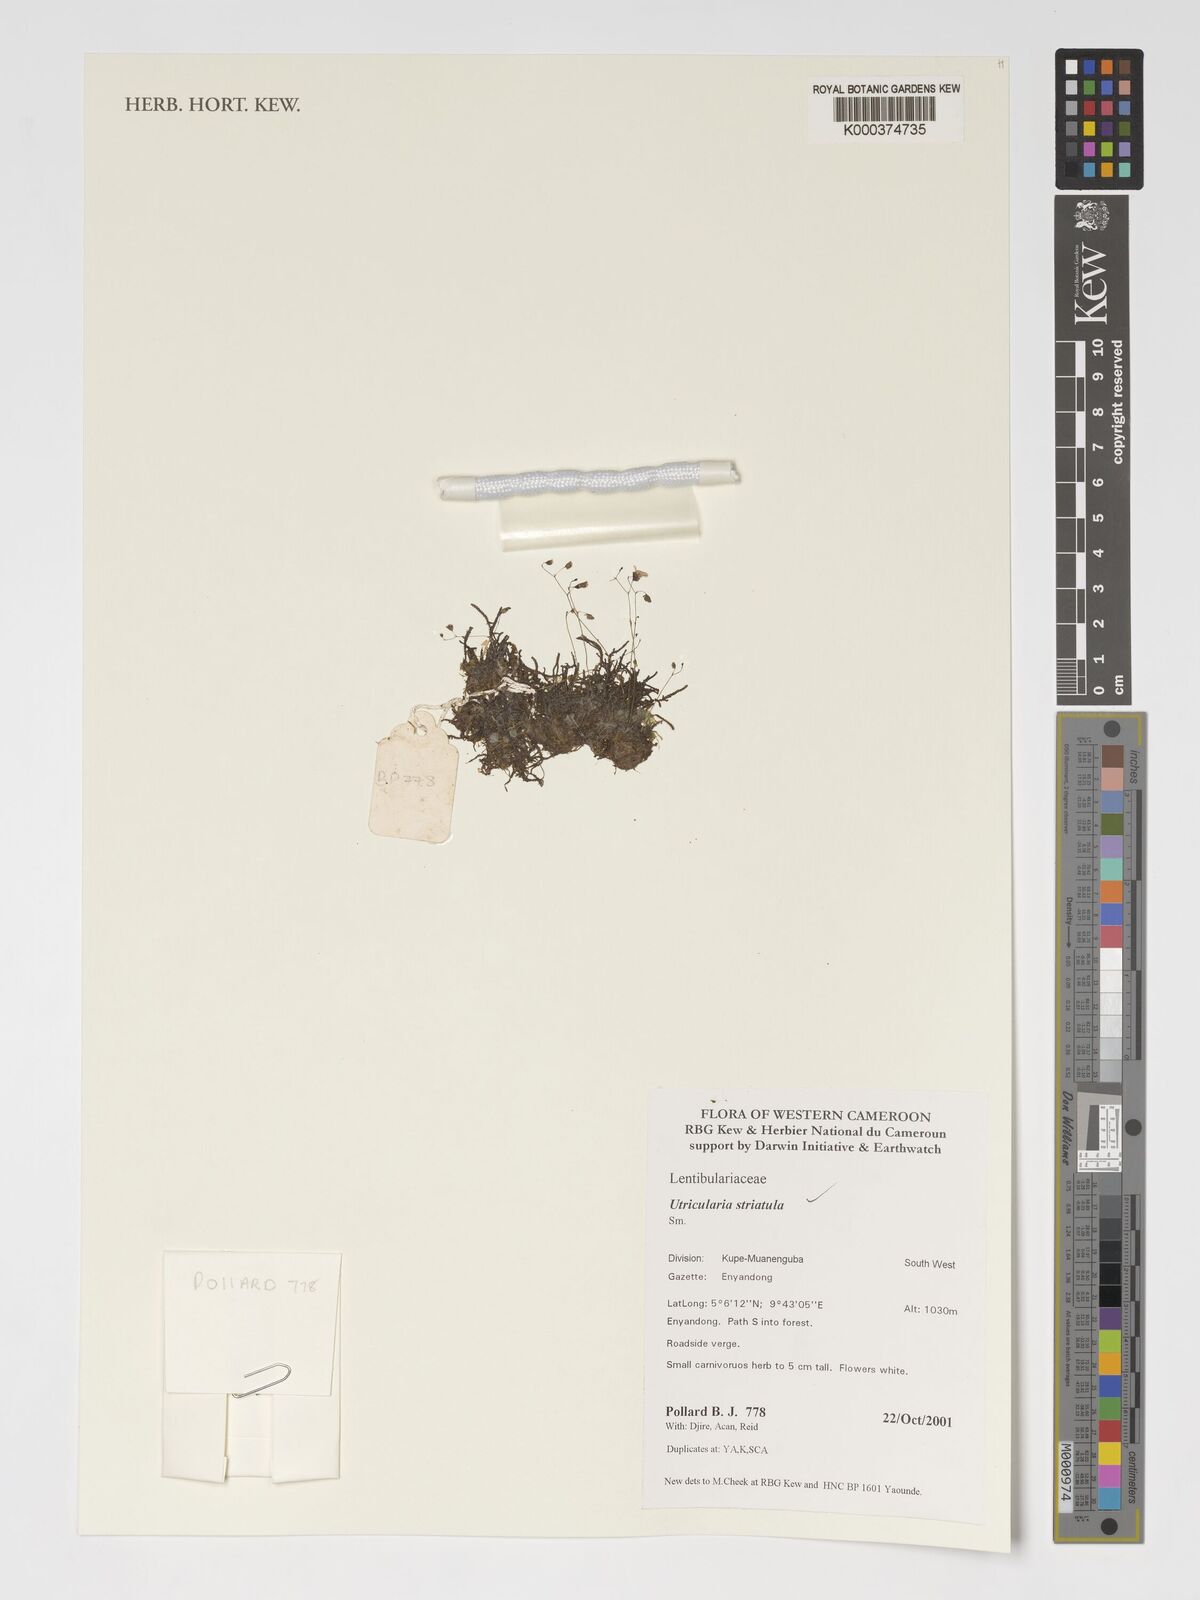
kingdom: Plantae
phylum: Tracheophyta
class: Magnoliopsida
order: Lamiales
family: Lentibulariaceae
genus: Utricularia
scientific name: Utricularia striatula
